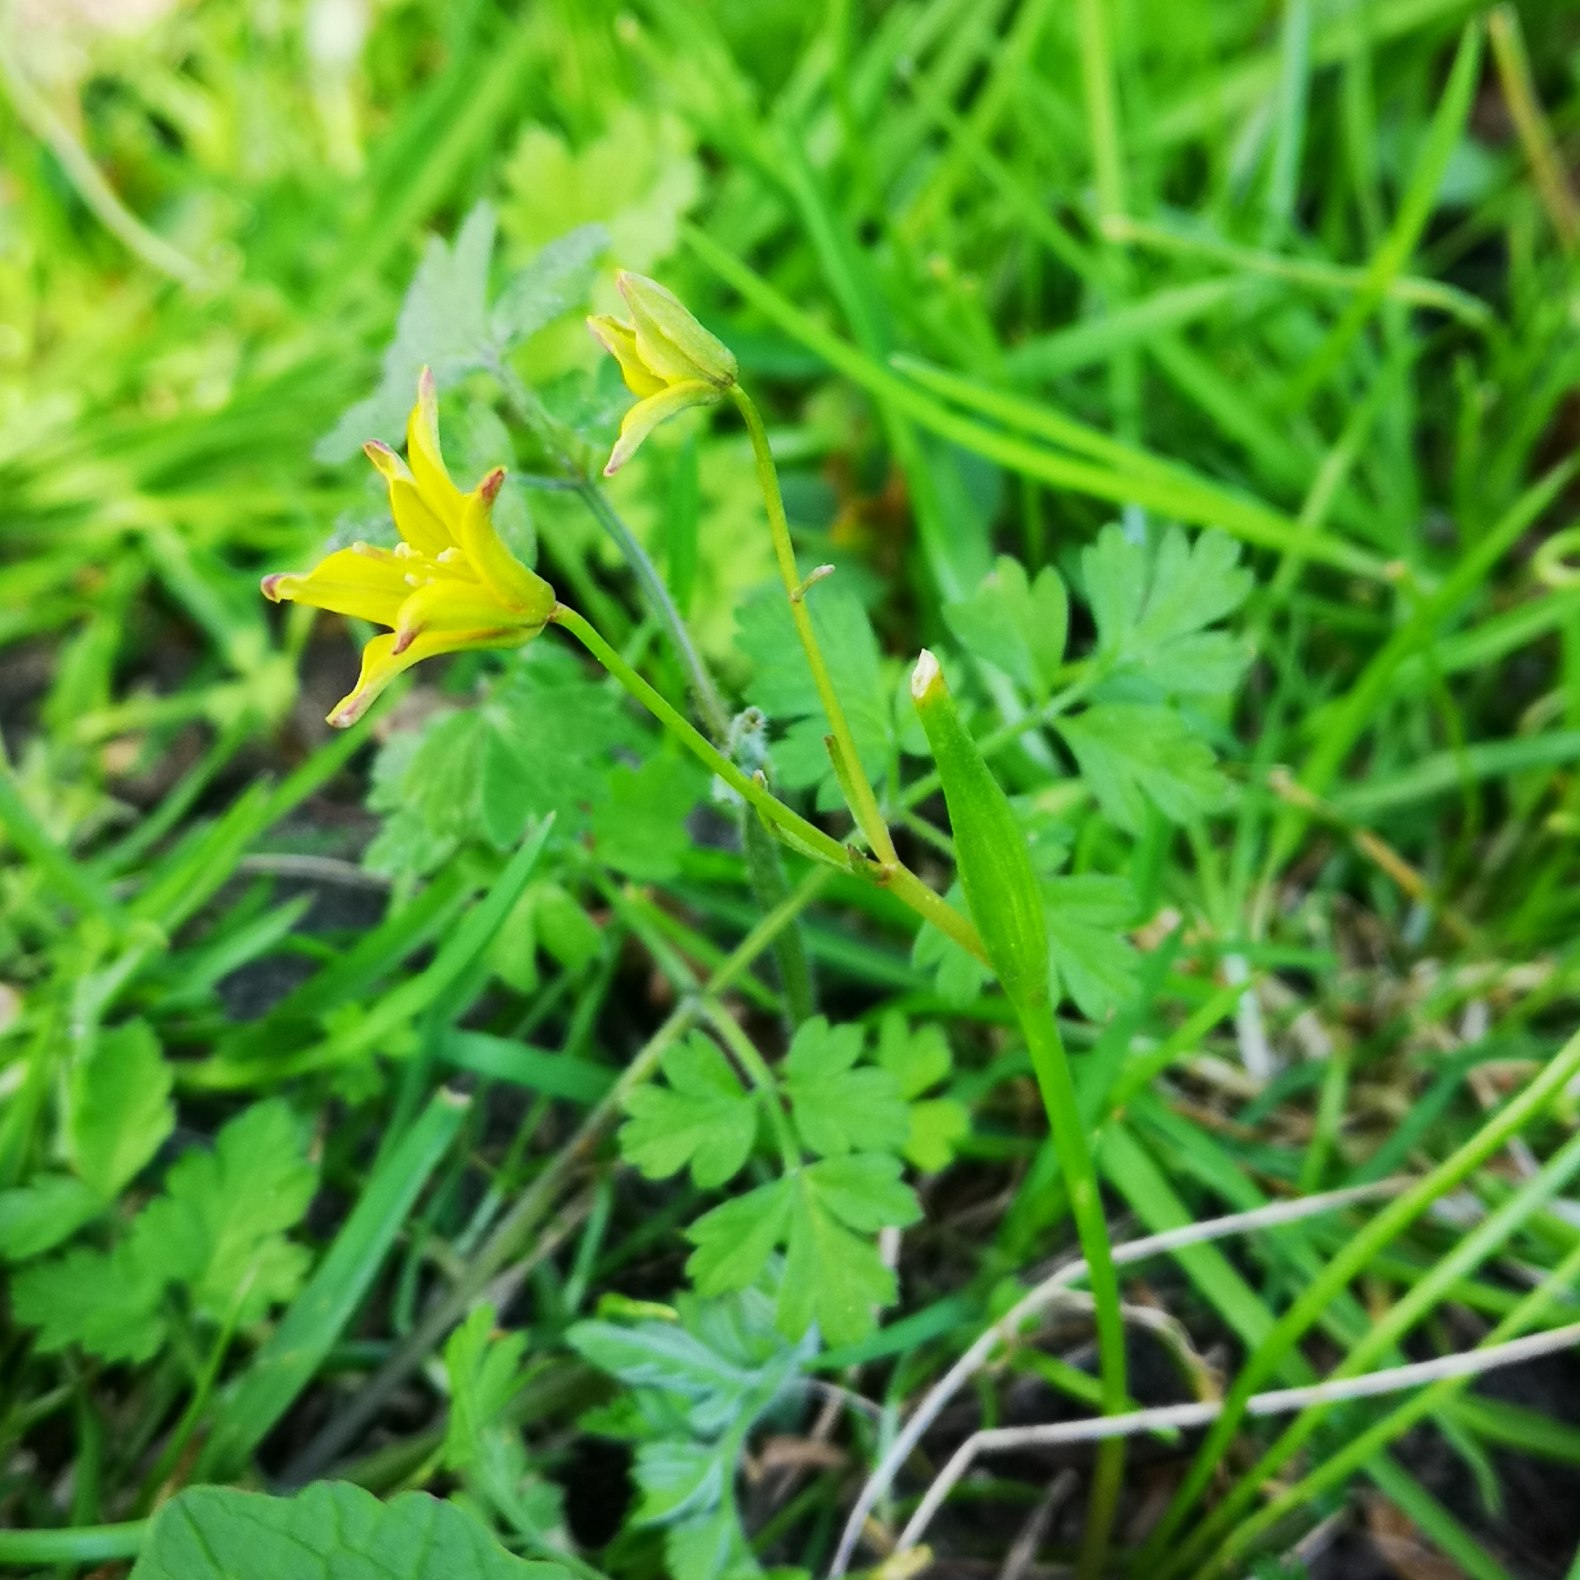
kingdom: Plantae
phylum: Tracheophyta
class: Liliopsida
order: Liliales
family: Liliaceae
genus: Gagea
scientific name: Gagea spathacea
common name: Hylster-guldstjerne
